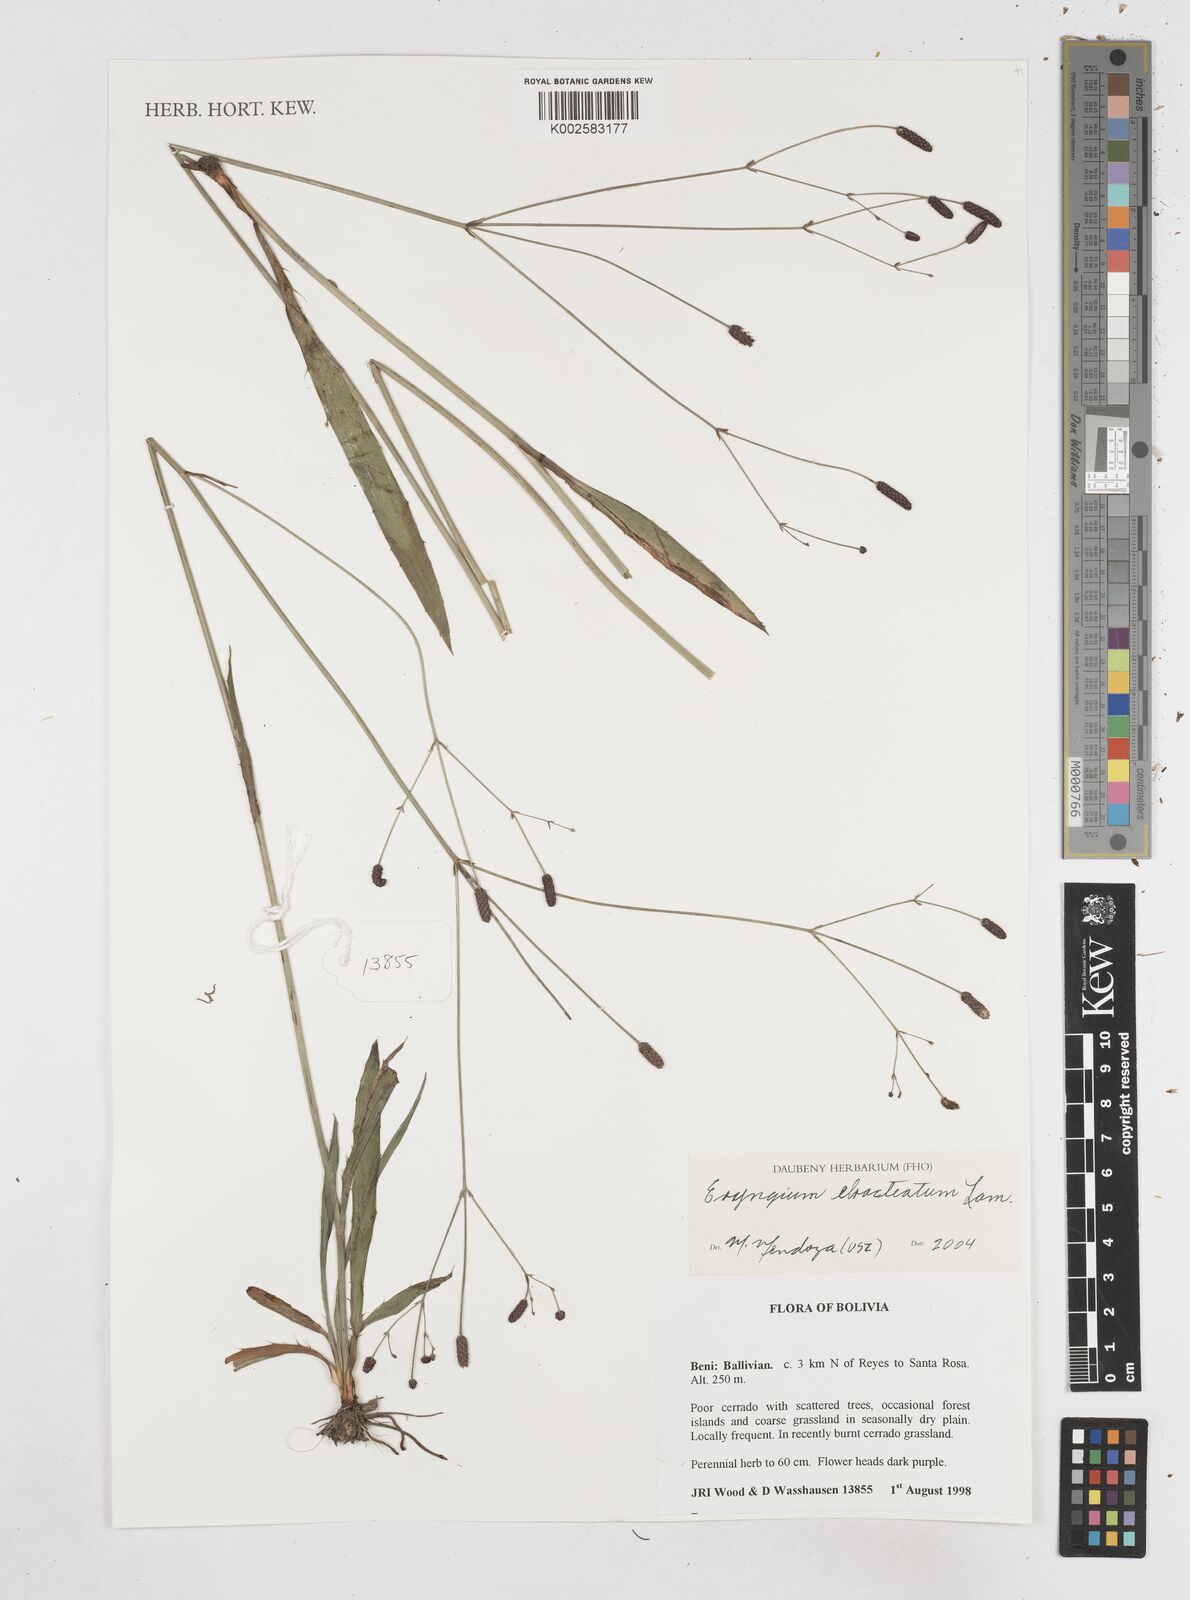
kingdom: Plantae
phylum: Tracheophyta
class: Magnoliopsida
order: Apiales
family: Apiaceae
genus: Eryngium
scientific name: Eryngium ebracteatum
